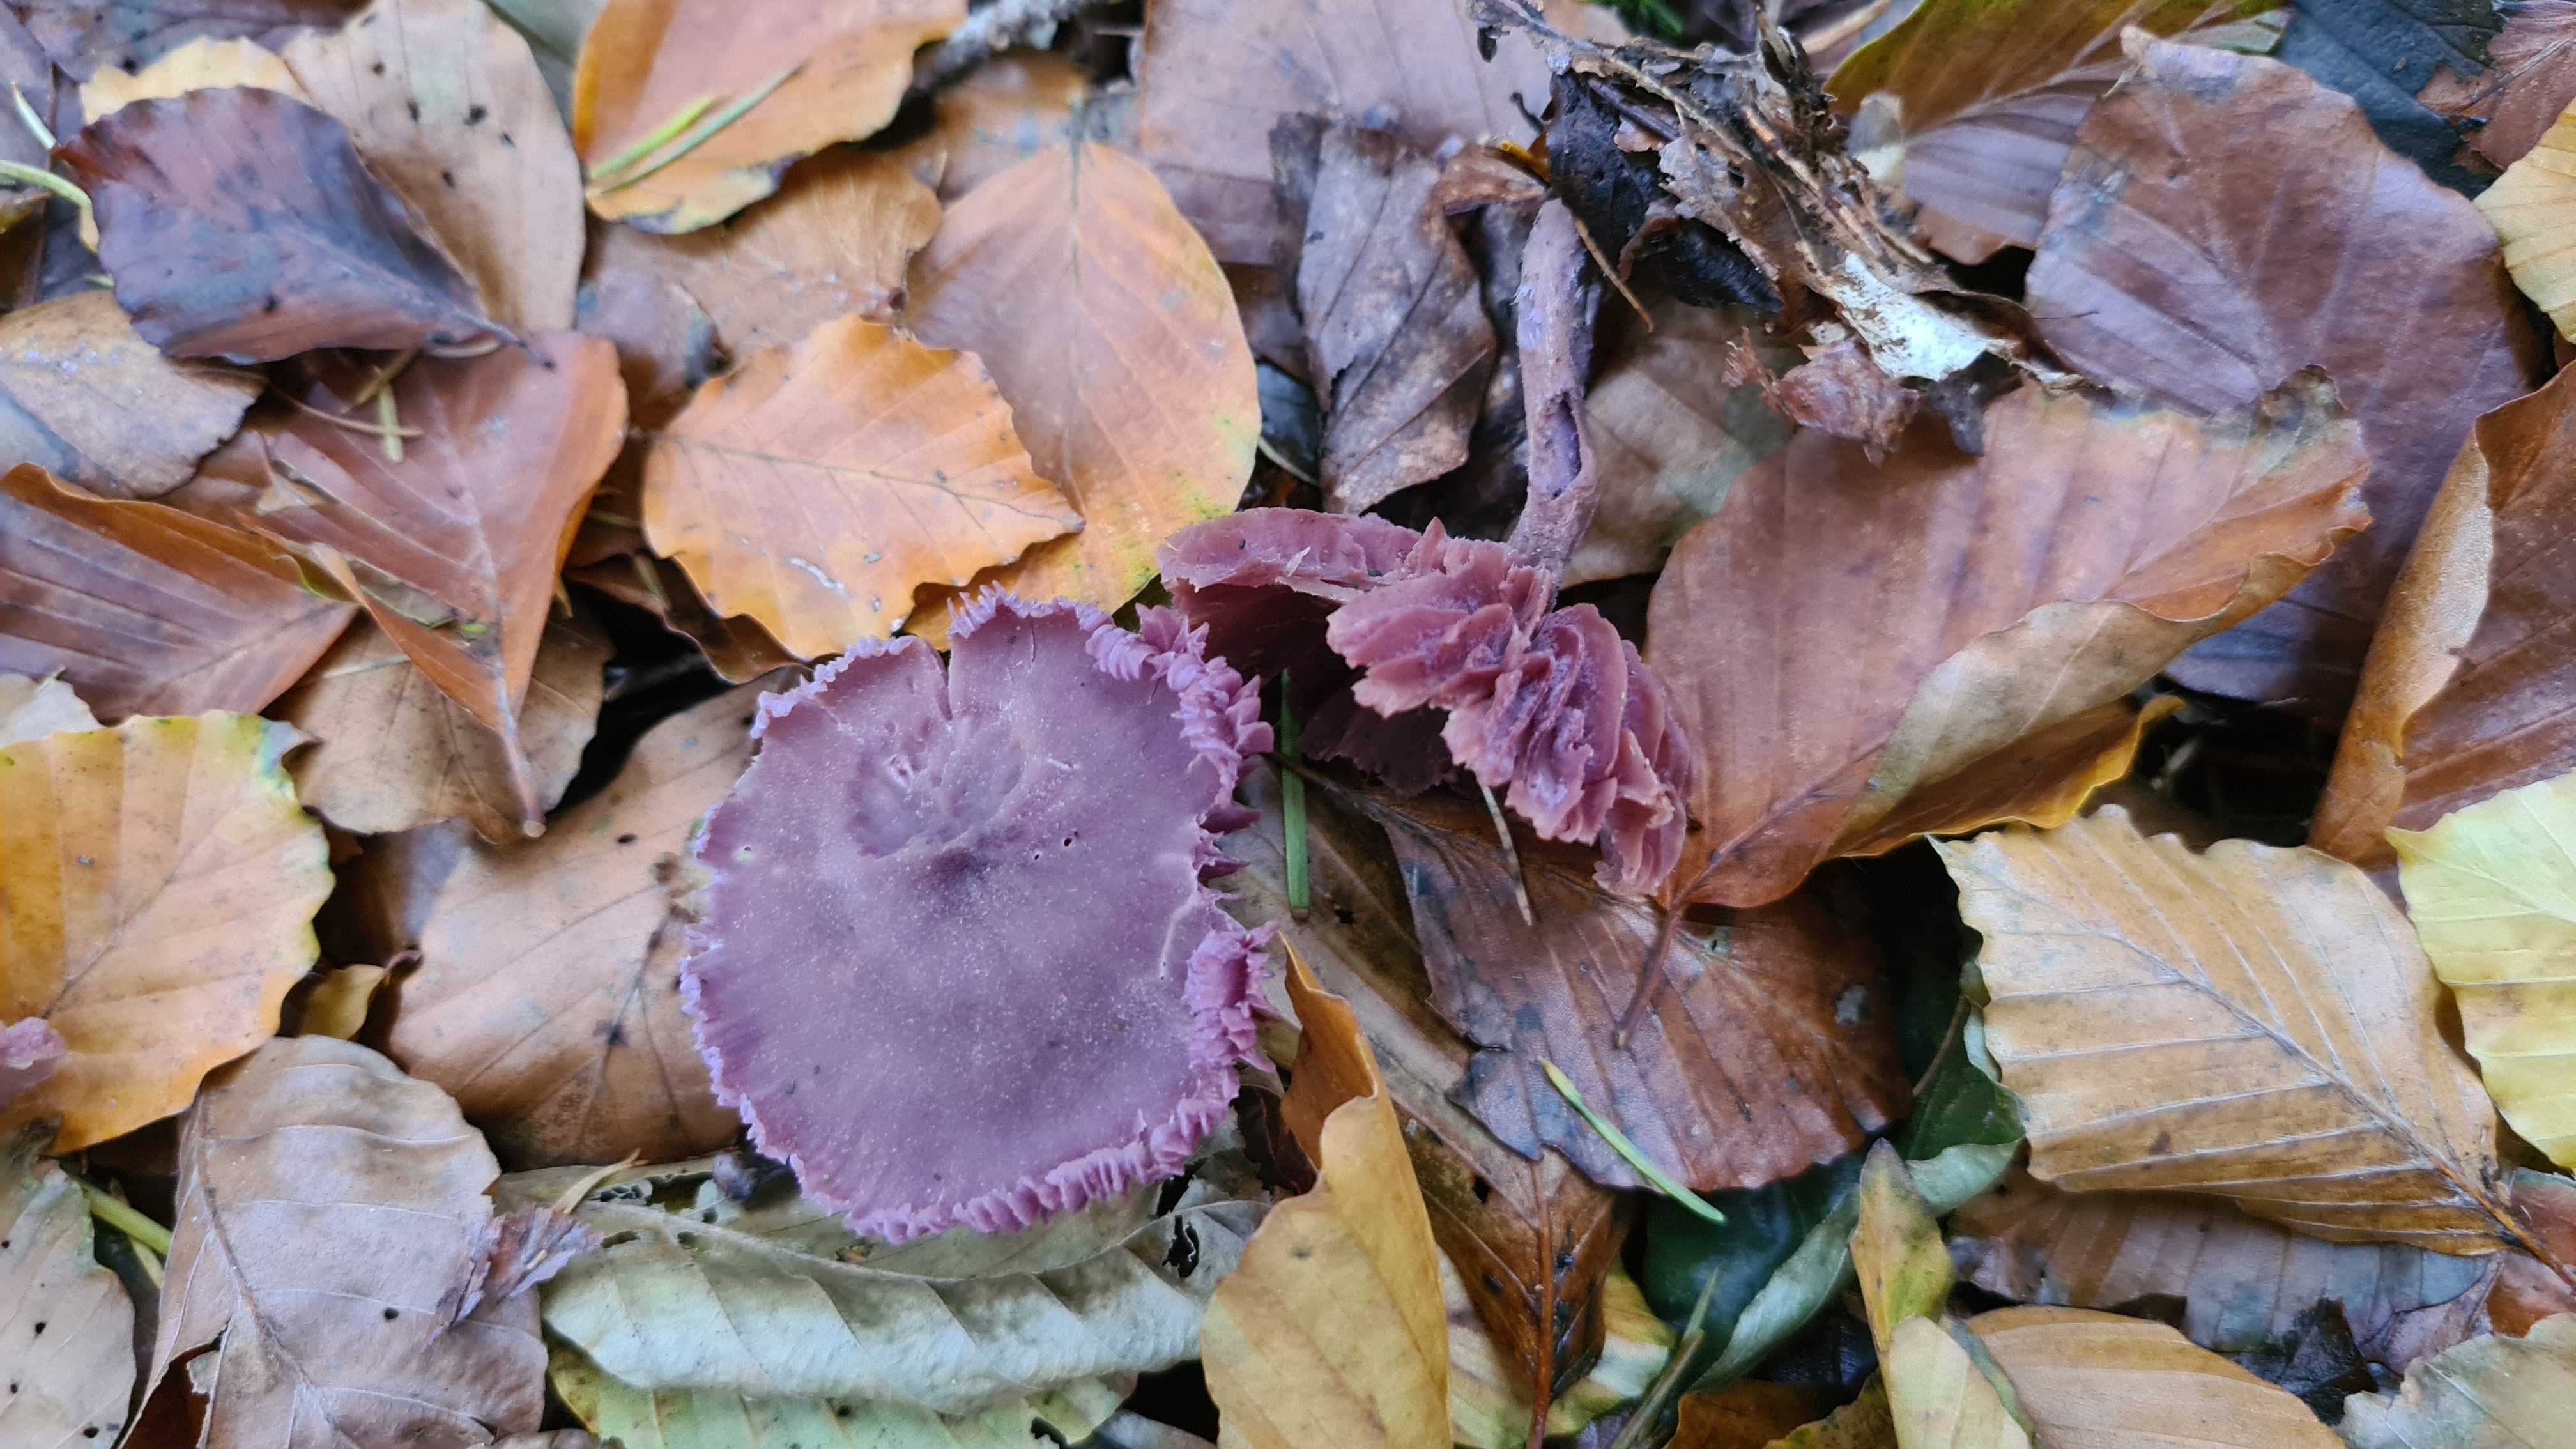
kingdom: Fungi
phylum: Basidiomycota
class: Agaricomycetes
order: Agaricales
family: Hydnangiaceae
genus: Laccaria
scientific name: Laccaria amethystina
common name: violet ametysthat
